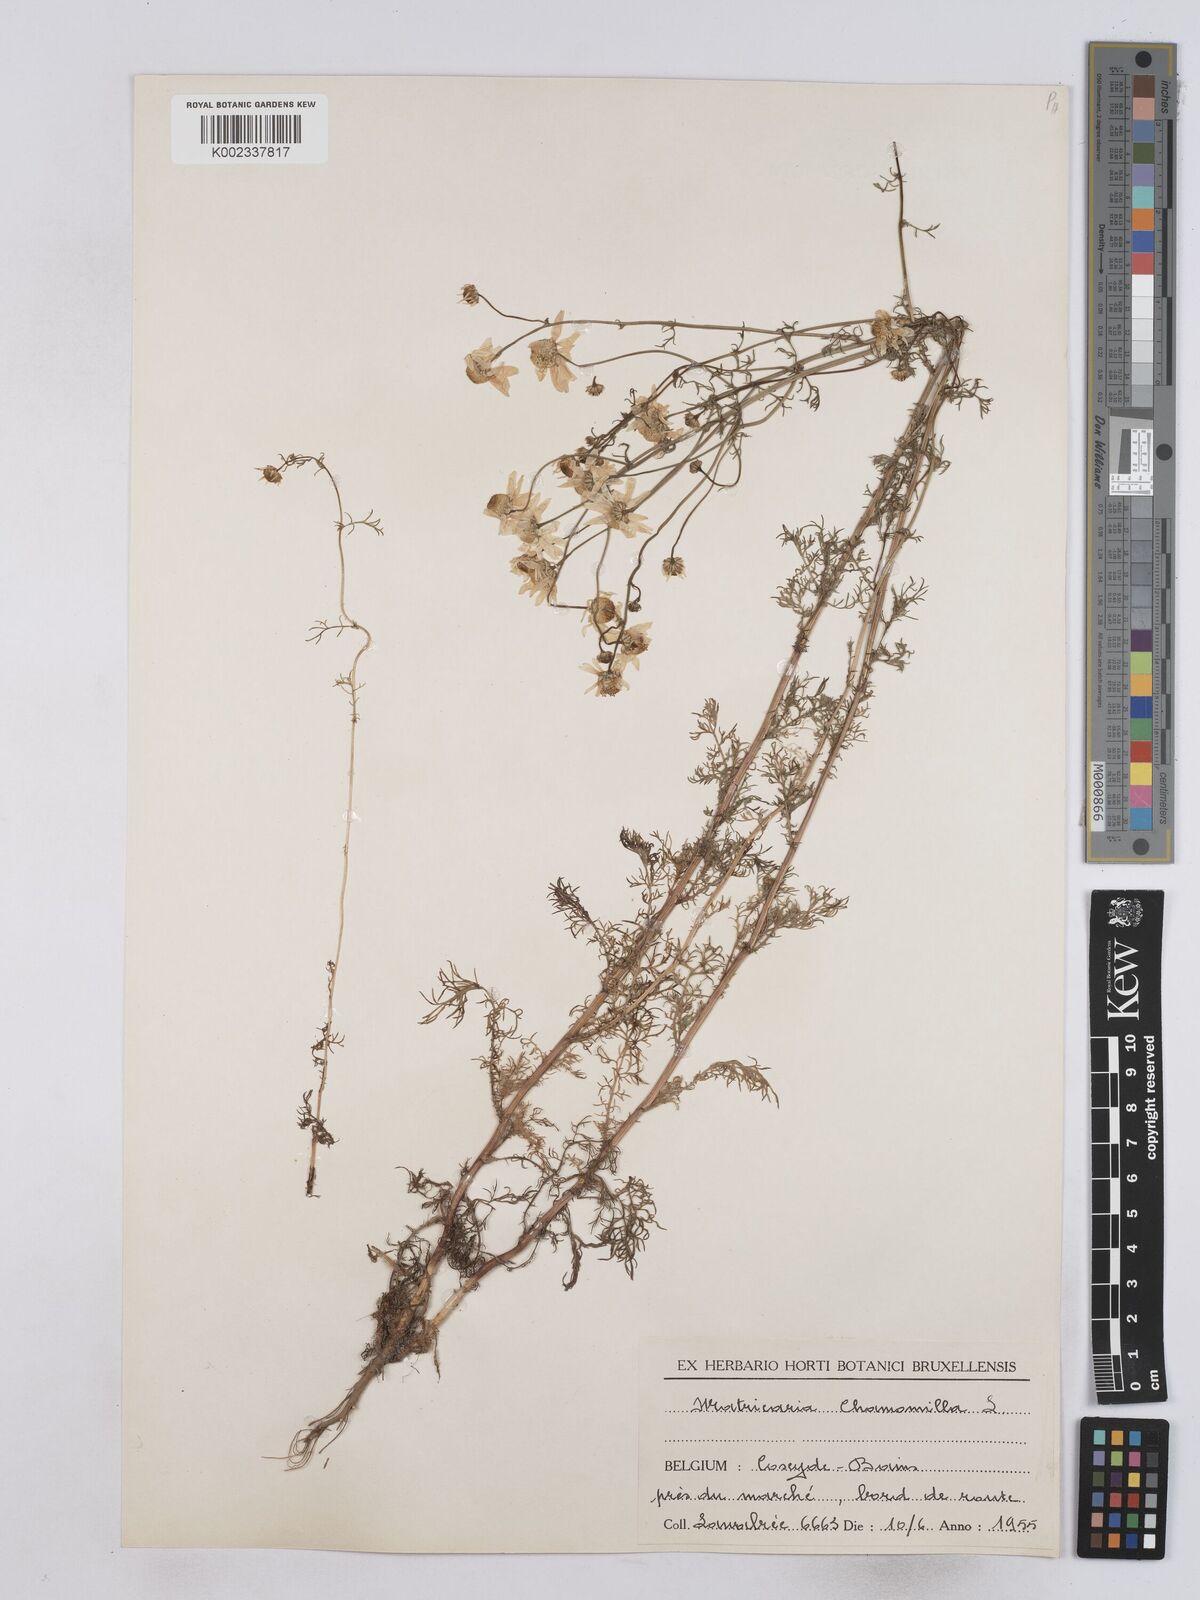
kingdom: Plantae
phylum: Tracheophyta
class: Magnoliopsida
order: Asterales
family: Asteraceae
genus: Matricaria
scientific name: Matricaria chamomilla
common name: Scented mayweed
